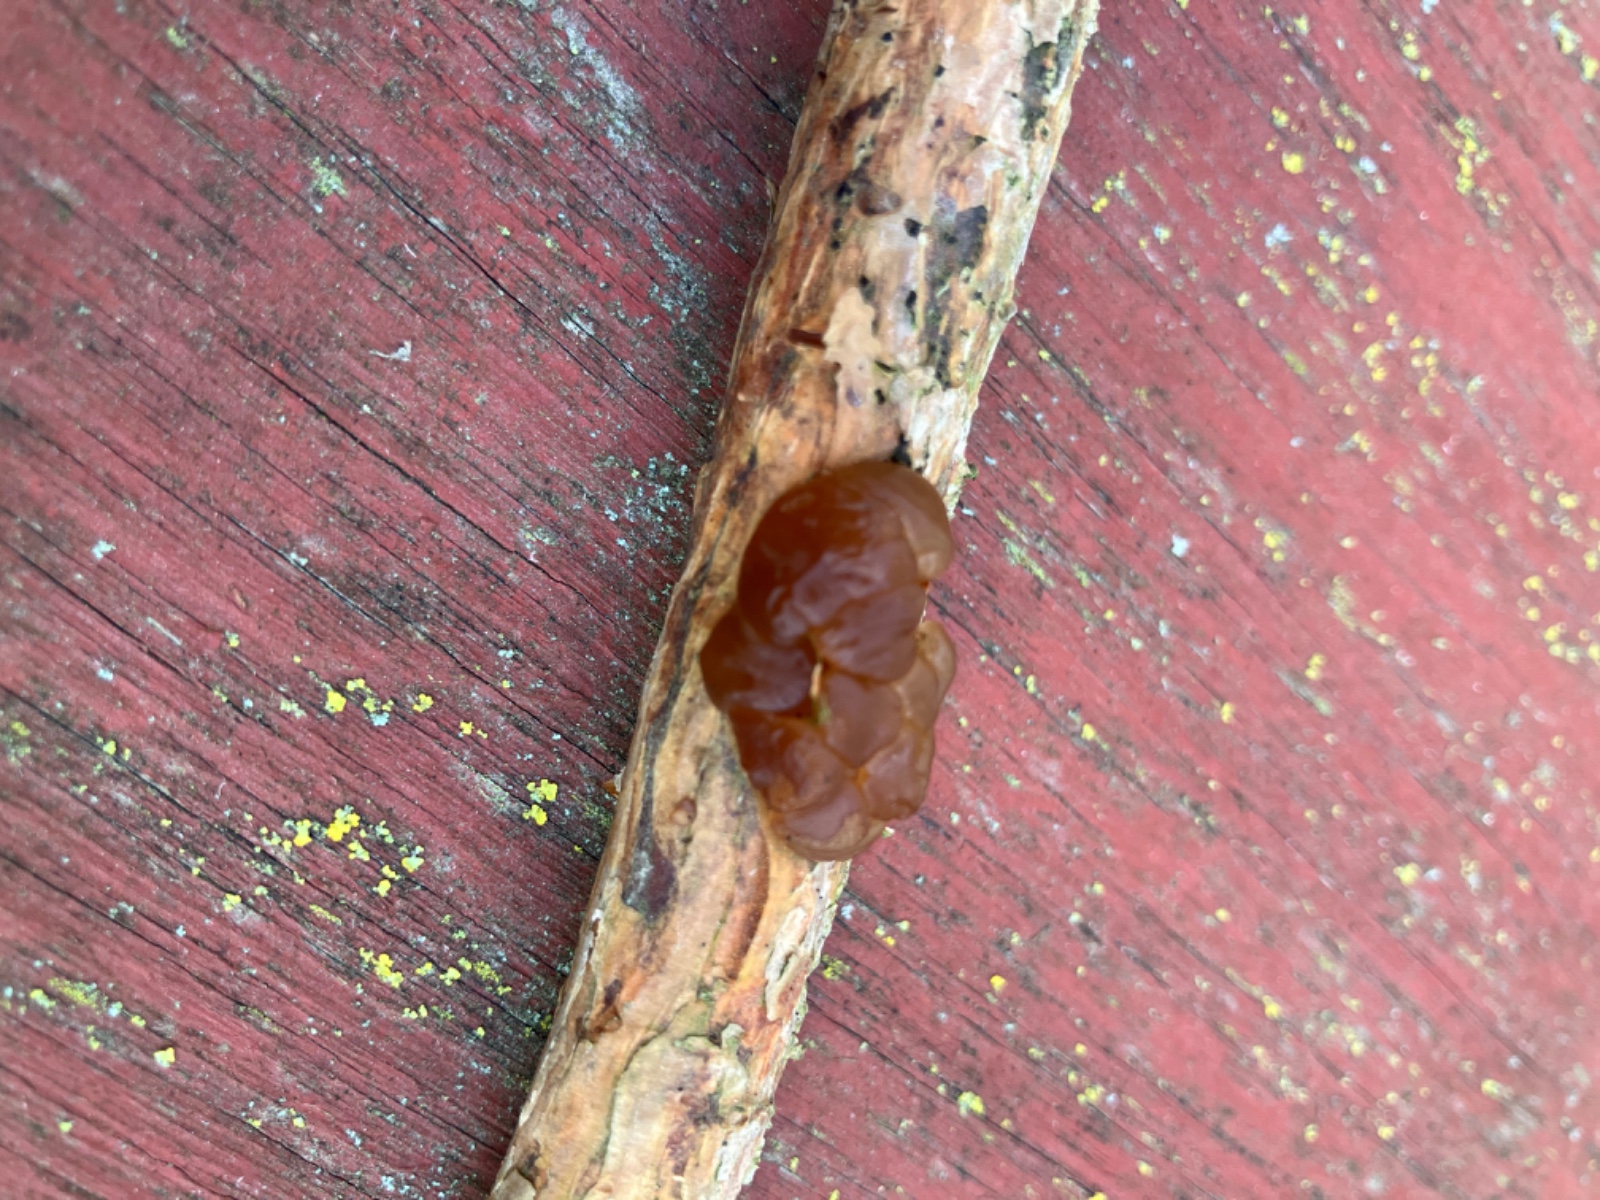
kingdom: Fungi
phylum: Basidiomycota
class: Agaricomycetes
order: Auriculariales
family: Auriculariaceae
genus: Exidia
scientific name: Exidia saccharina
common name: kandis-bævretop
